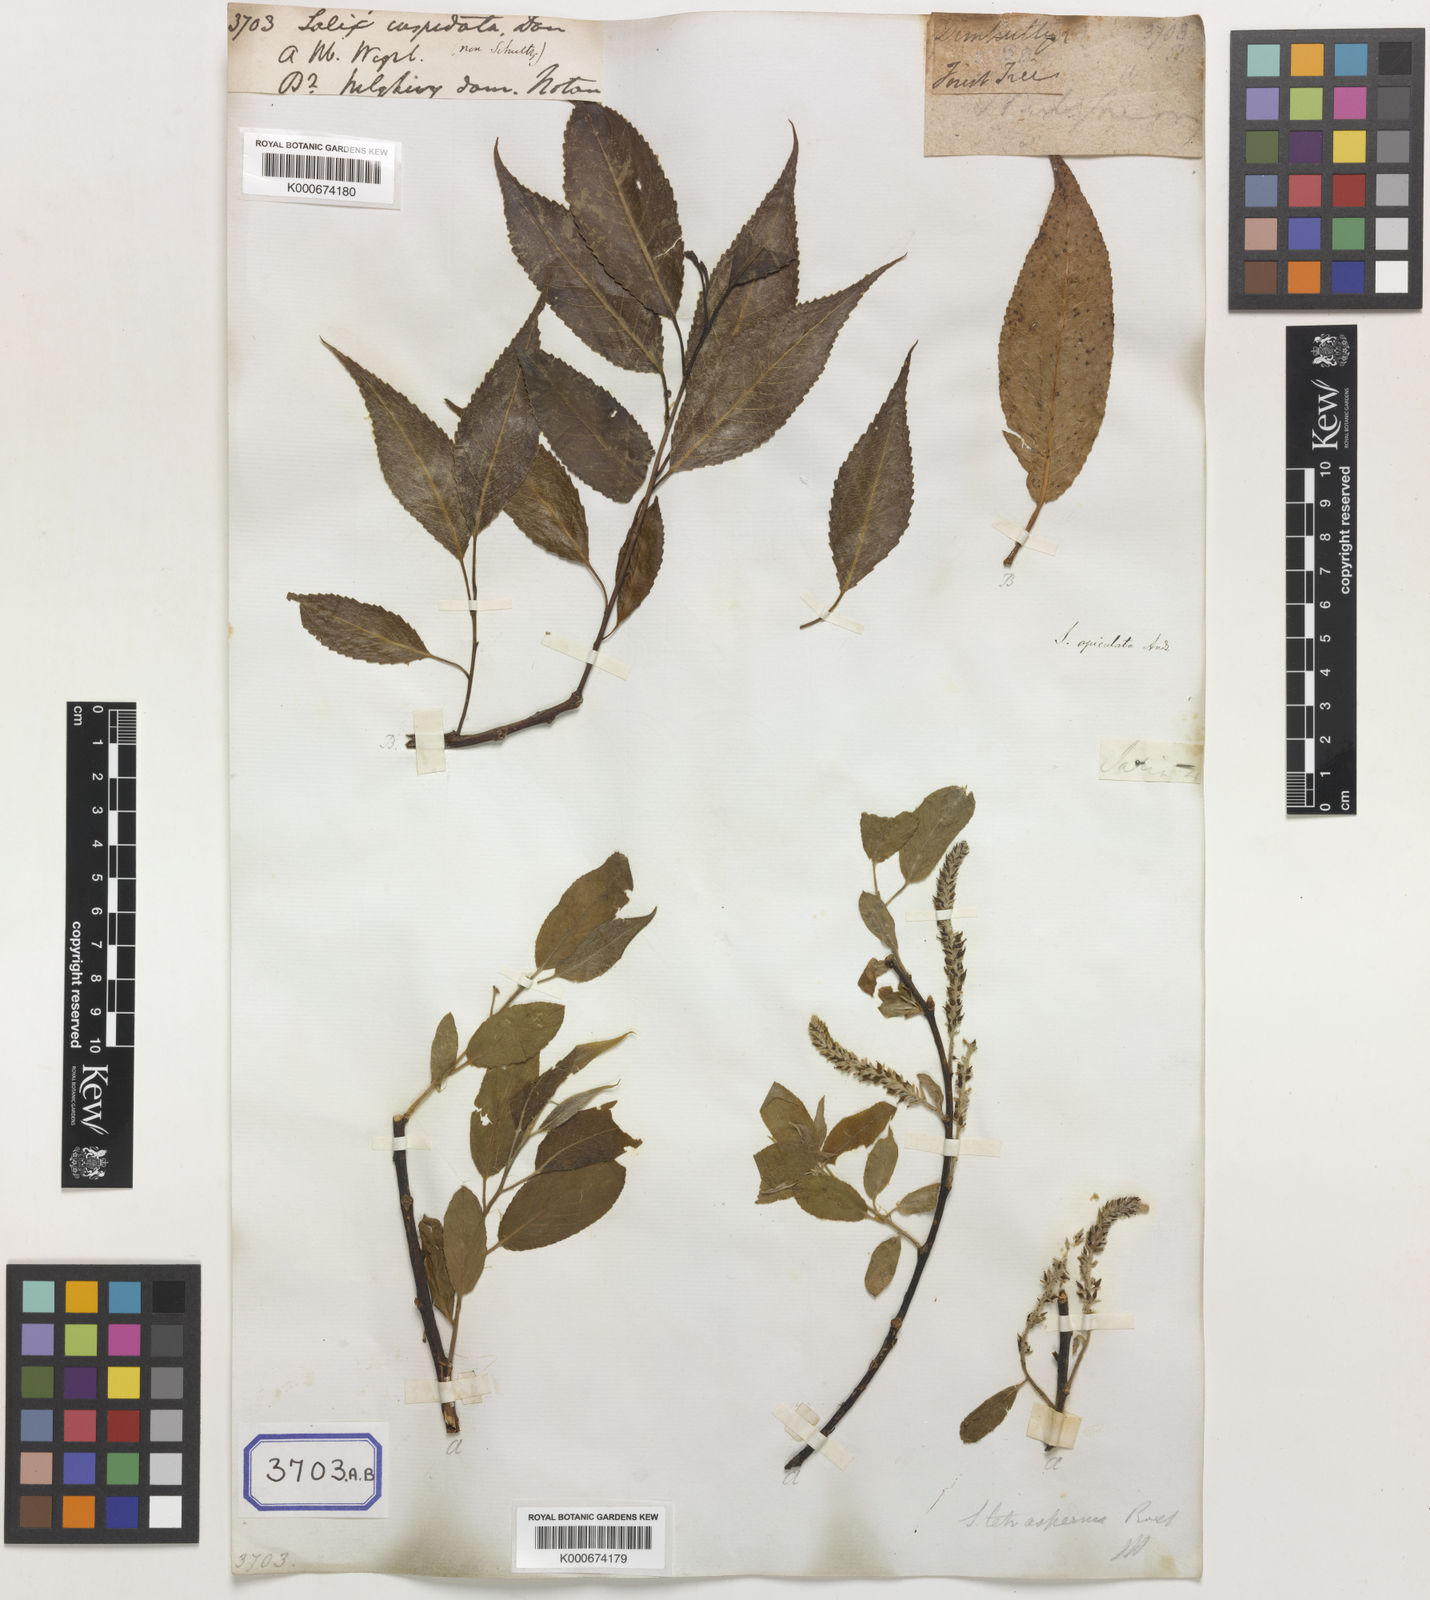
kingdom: Plantae
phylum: Tracheophyta
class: Magnoliopsida
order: Malpighiales
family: Salicaceae
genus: Salix
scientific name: Salix tetrasperma
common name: Indian willow
